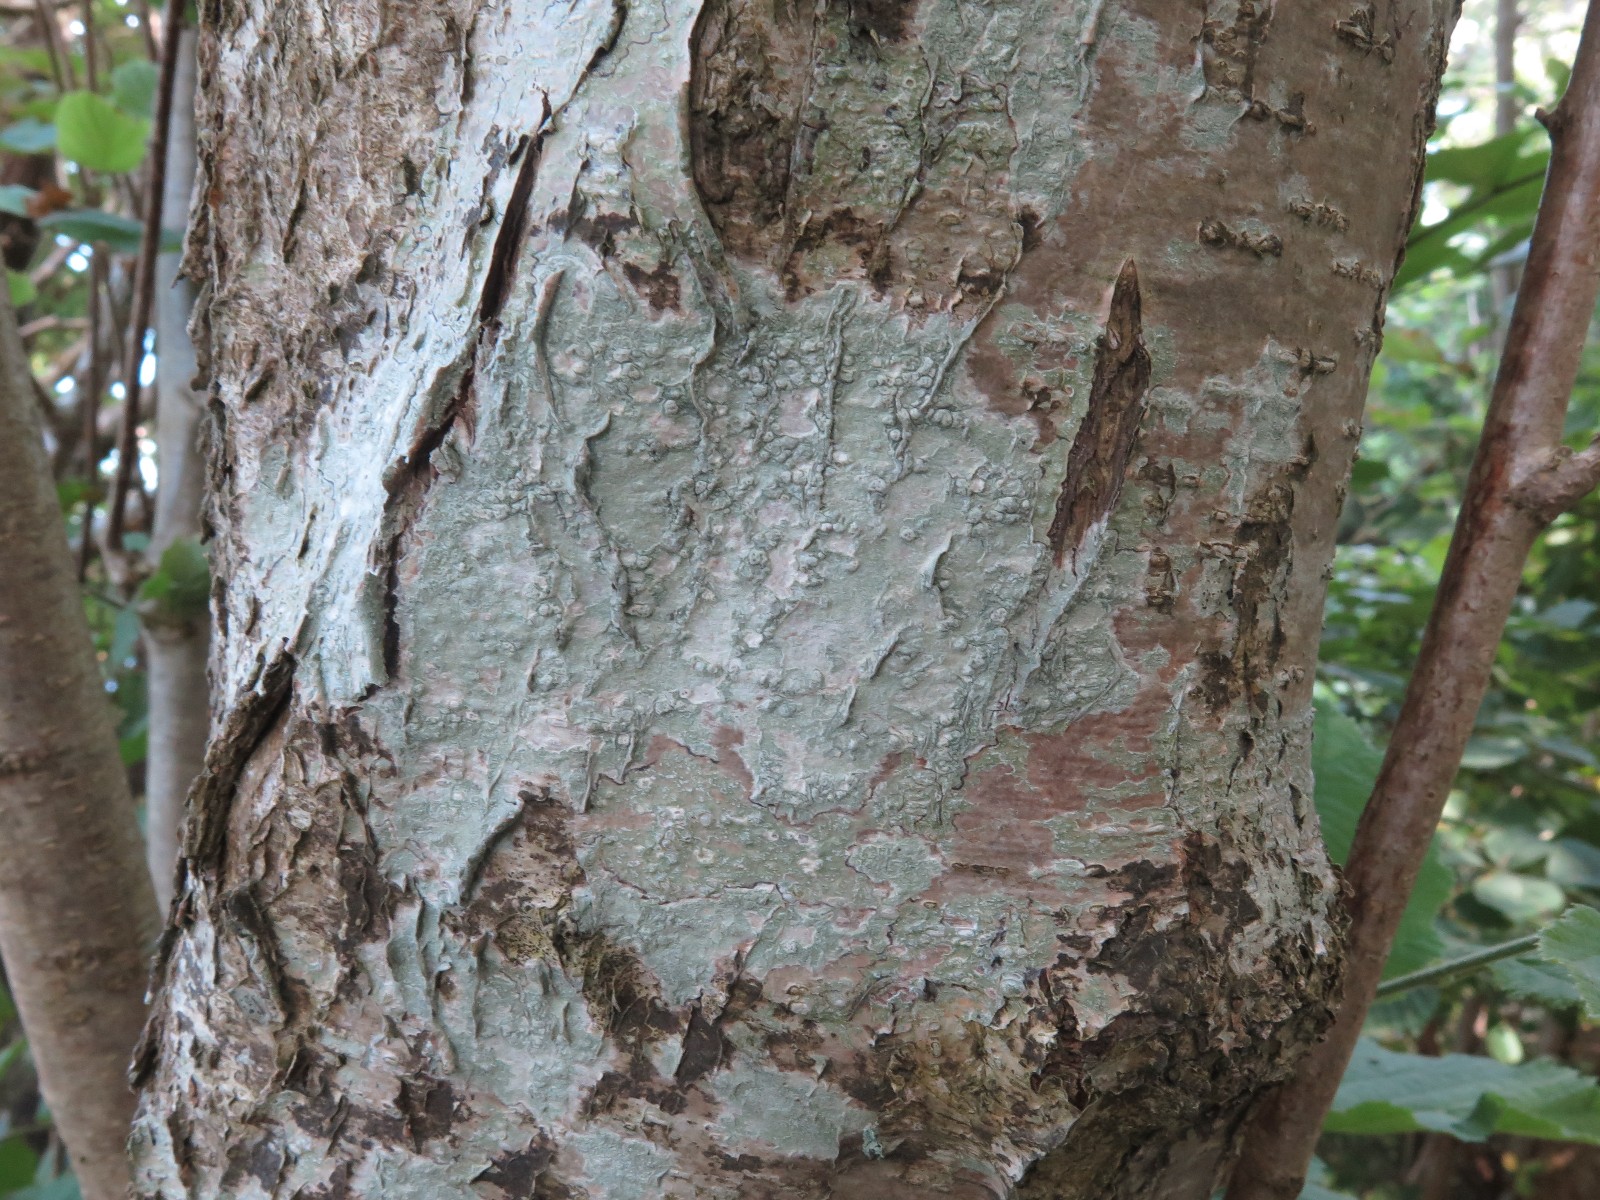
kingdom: Fungi
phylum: Ascomycota
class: Lecanoromycetes
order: Pertusariales
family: Pertusariaceae
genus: Pertusaria
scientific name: Pertusaria pertusa
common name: almindelig prikvortelav
